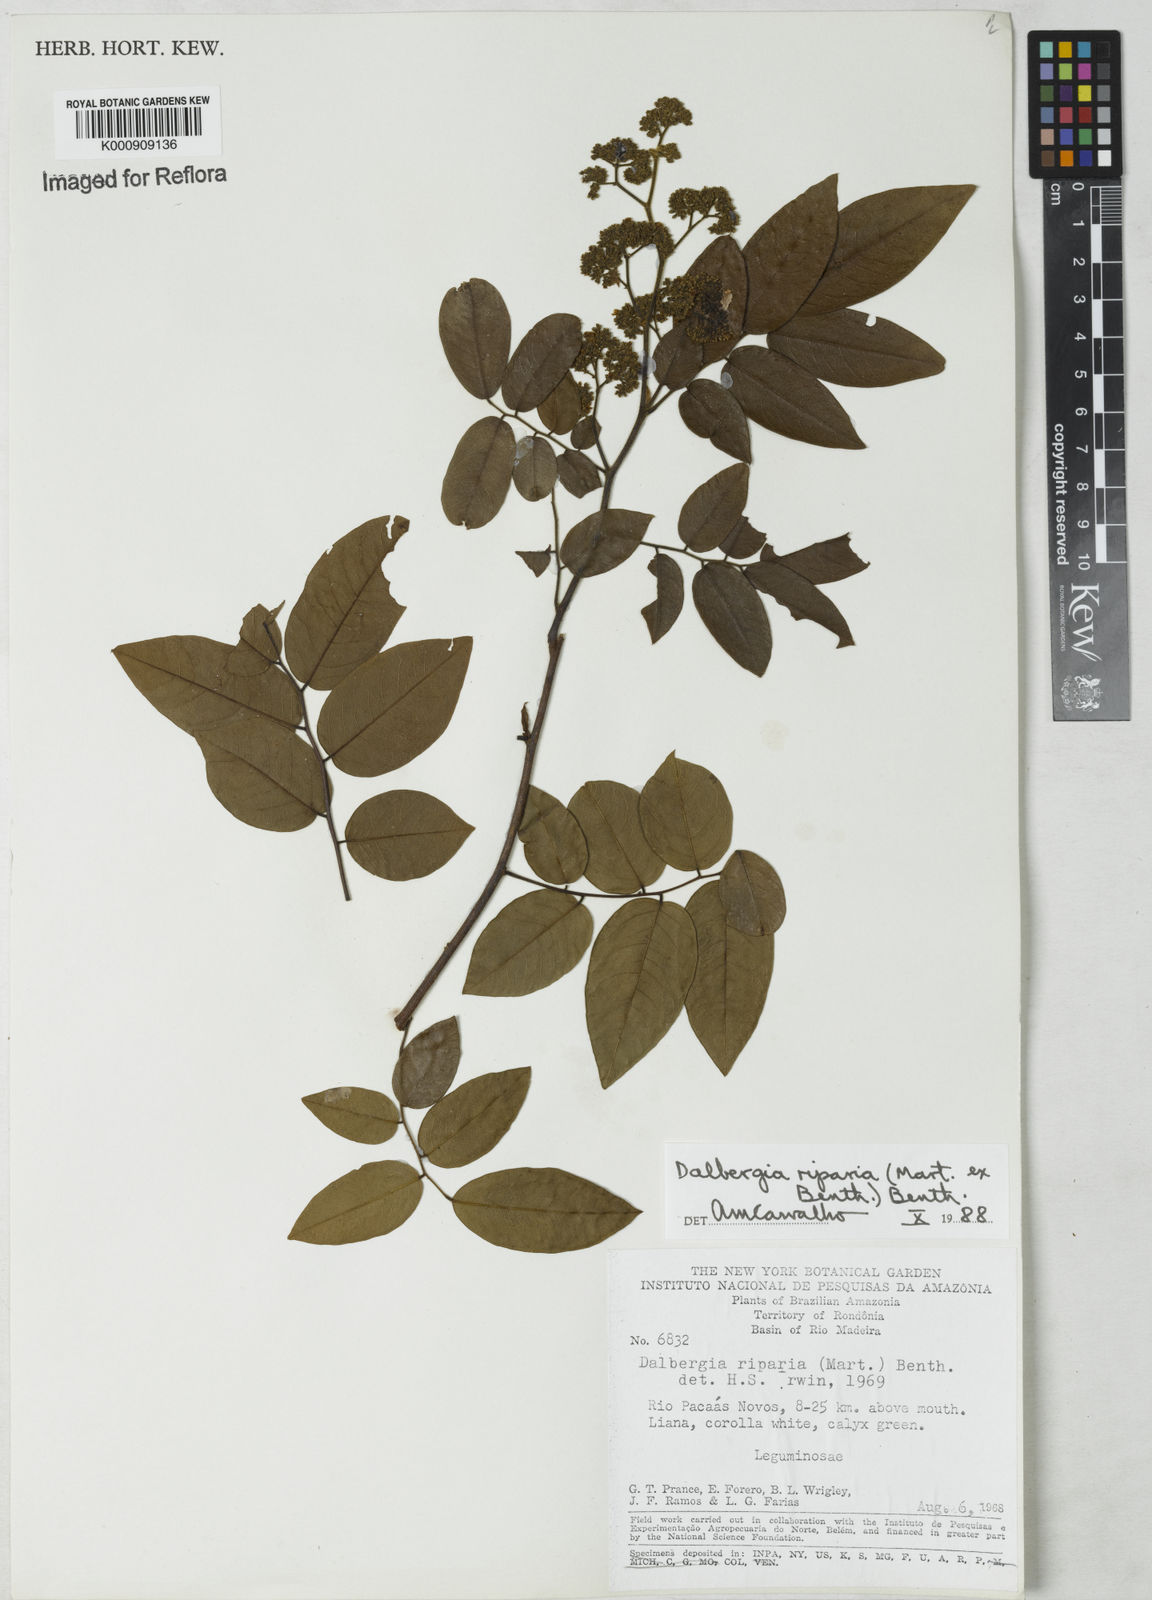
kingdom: Plantae
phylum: Tracheophyta
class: Magnoliopsida
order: Fabales
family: Fabaceae
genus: Dalbergia
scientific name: Dalbergia riparia
